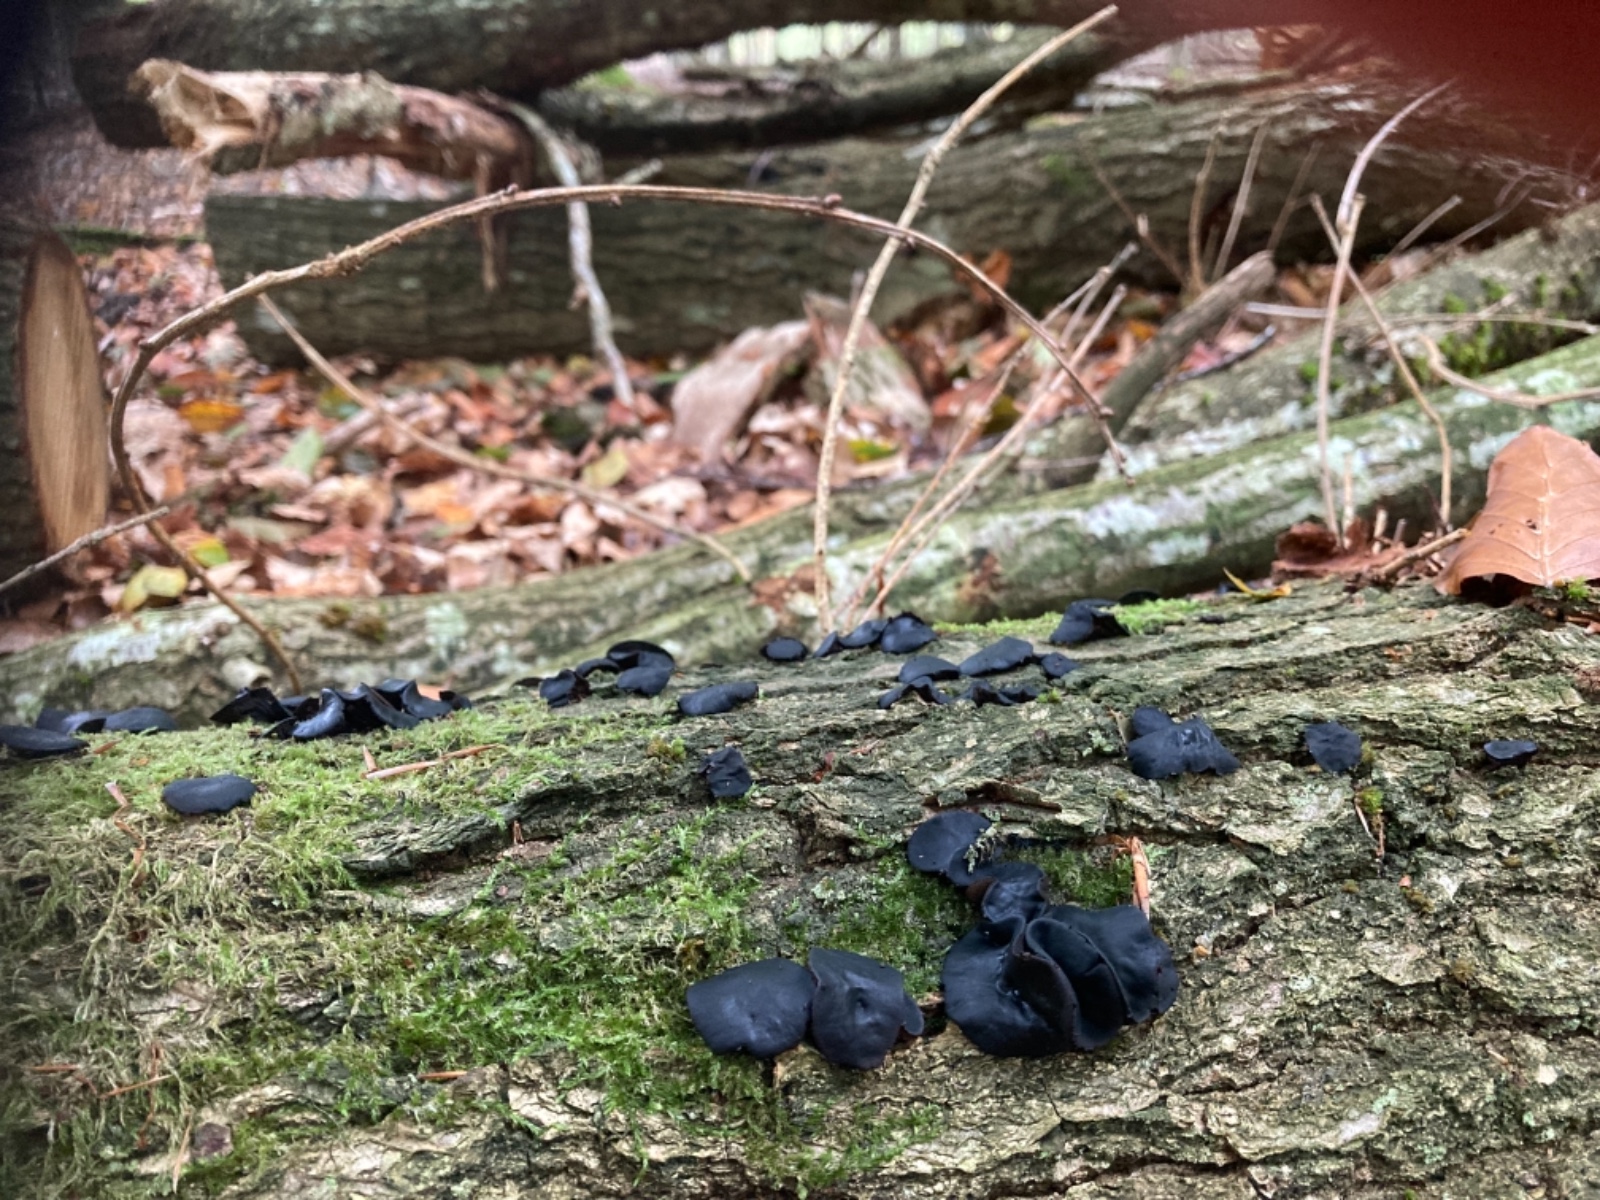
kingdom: Fungi
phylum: Ascomycota
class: Leotiomycetes
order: Phacidiales
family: Phacidiaceae
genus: Bulgaria
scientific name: Bulgaria inquinans
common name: afsmittende topsvamp
